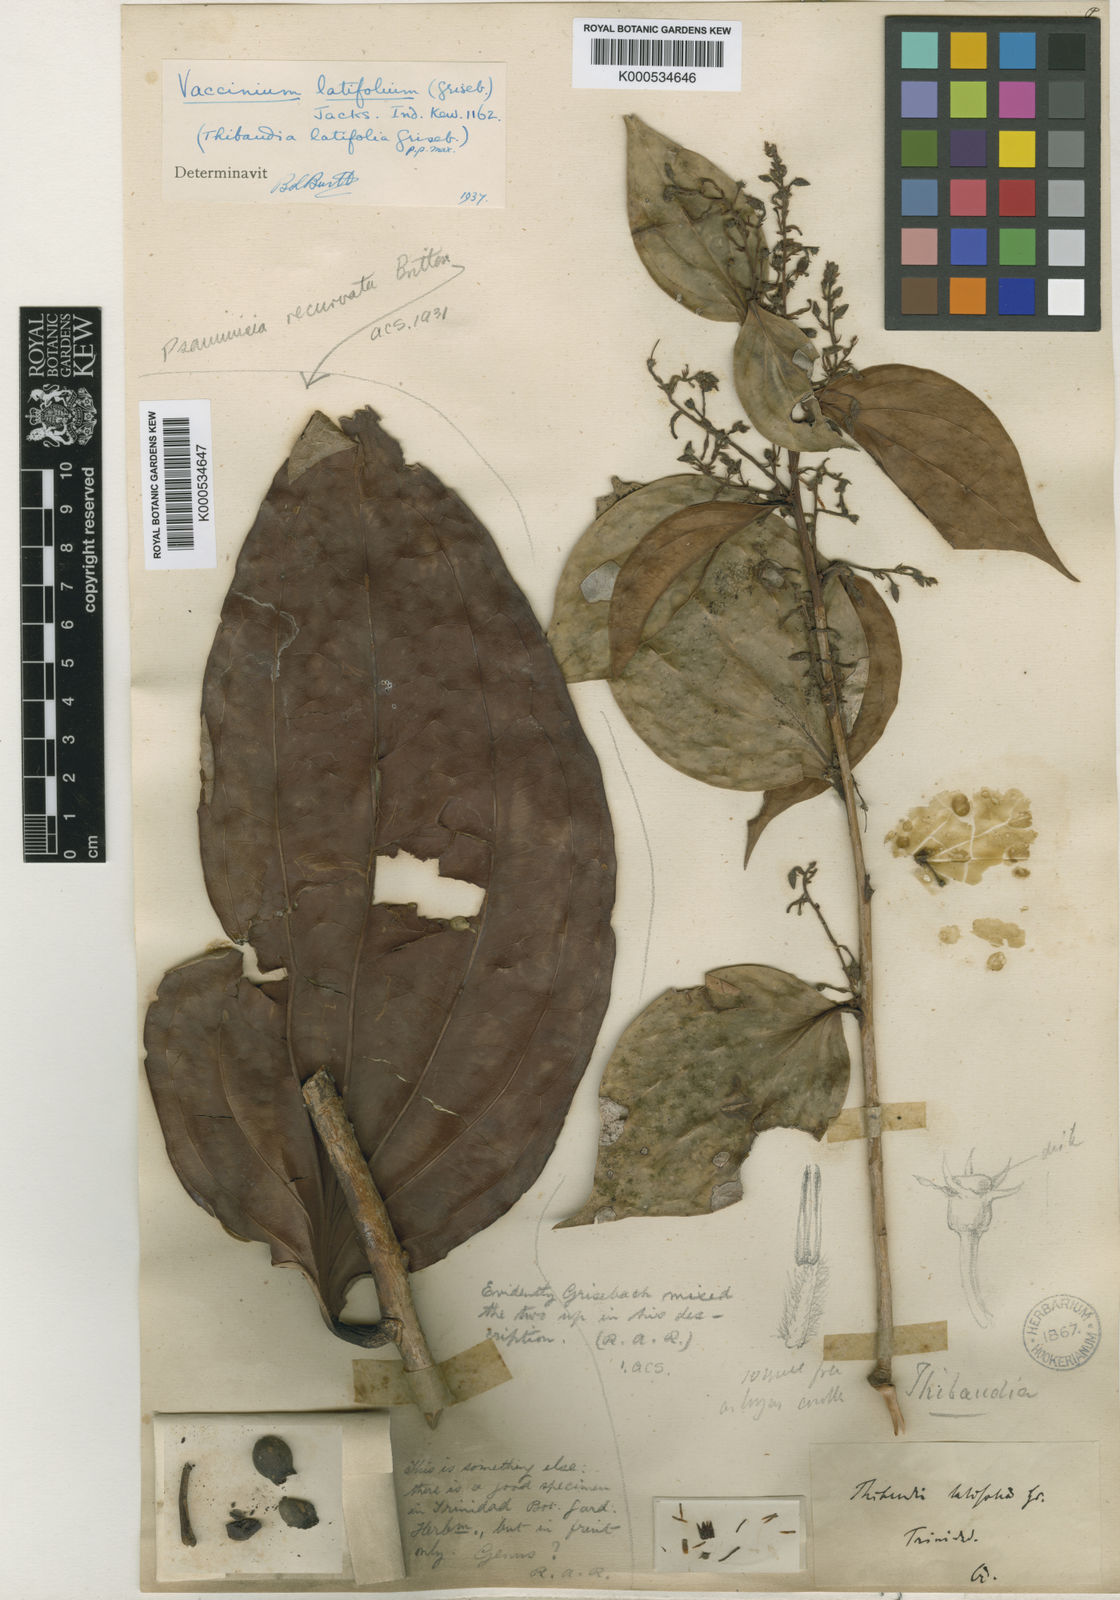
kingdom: Plantae
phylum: Tracheophyta
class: Magnoliopsida
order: Ericales
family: Ericaceae
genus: Vaccinium
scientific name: Vaccinium
